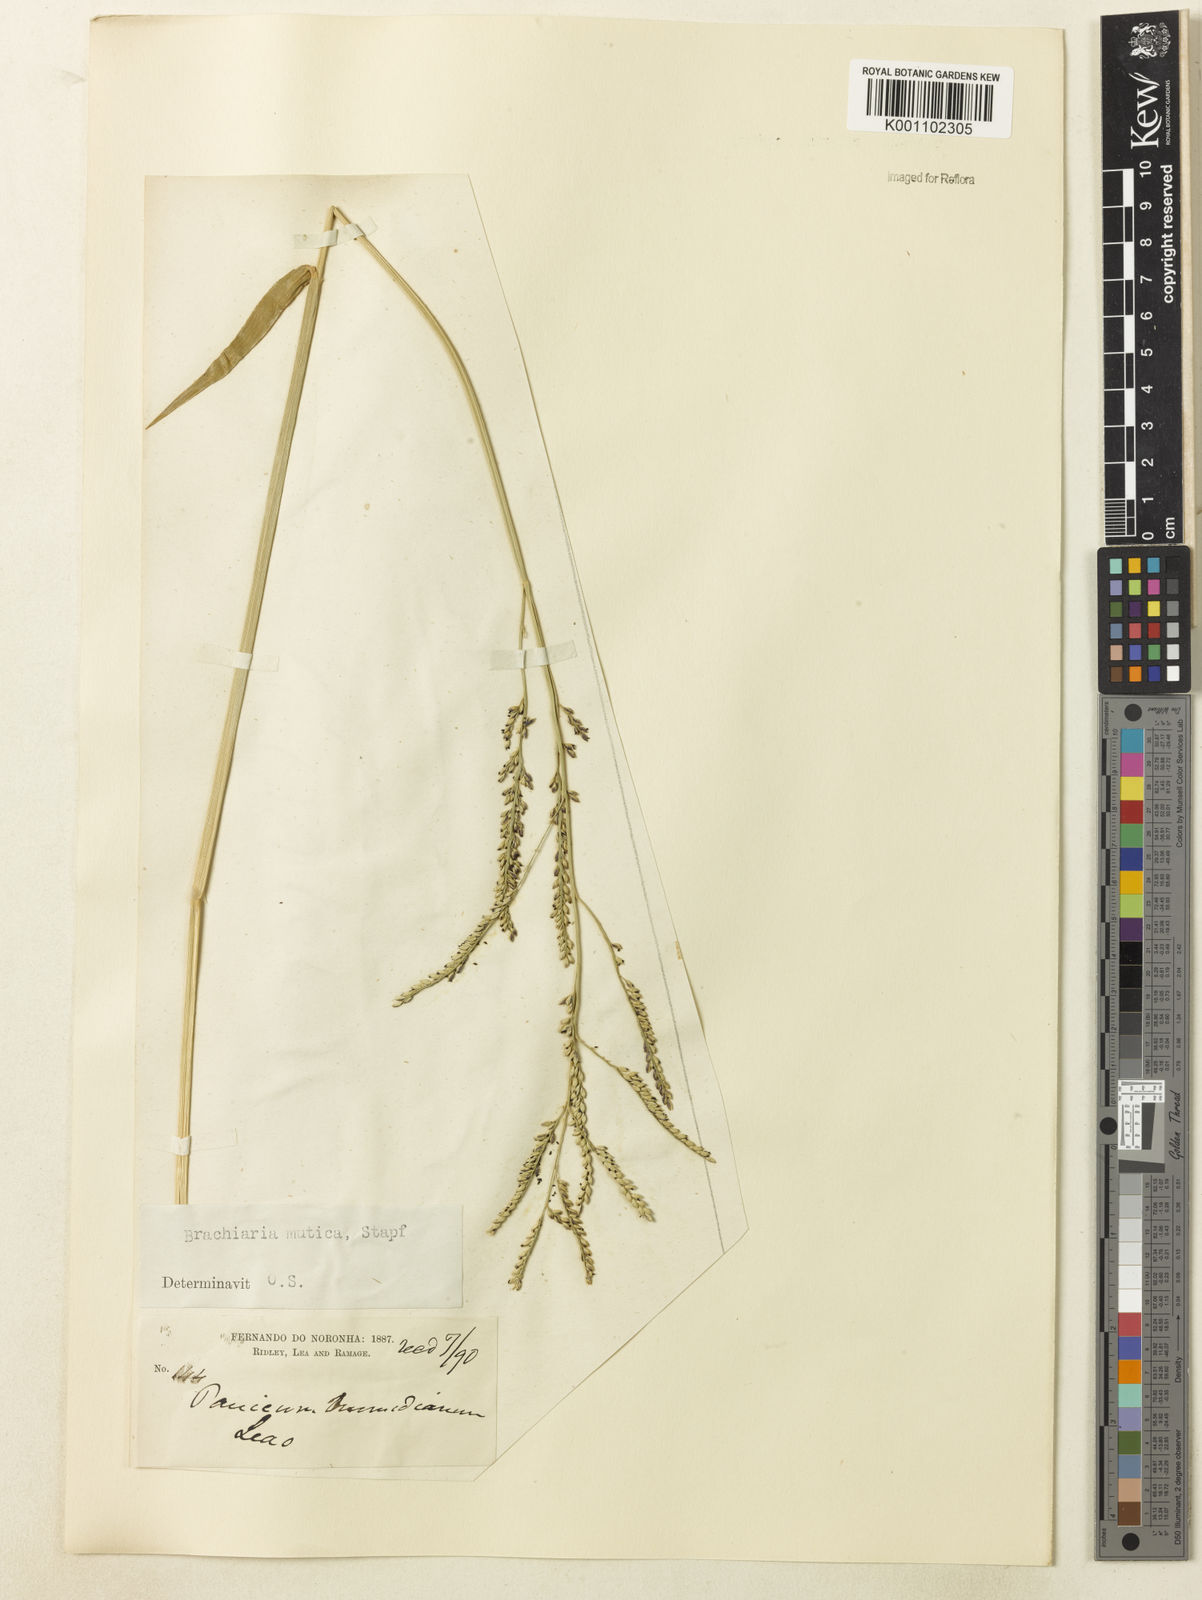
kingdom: Plantae
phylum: Tracheophyta
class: Liliopsida
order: Poales
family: Poaceae
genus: Urochloa
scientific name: Urochloa mutica
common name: Para grass
